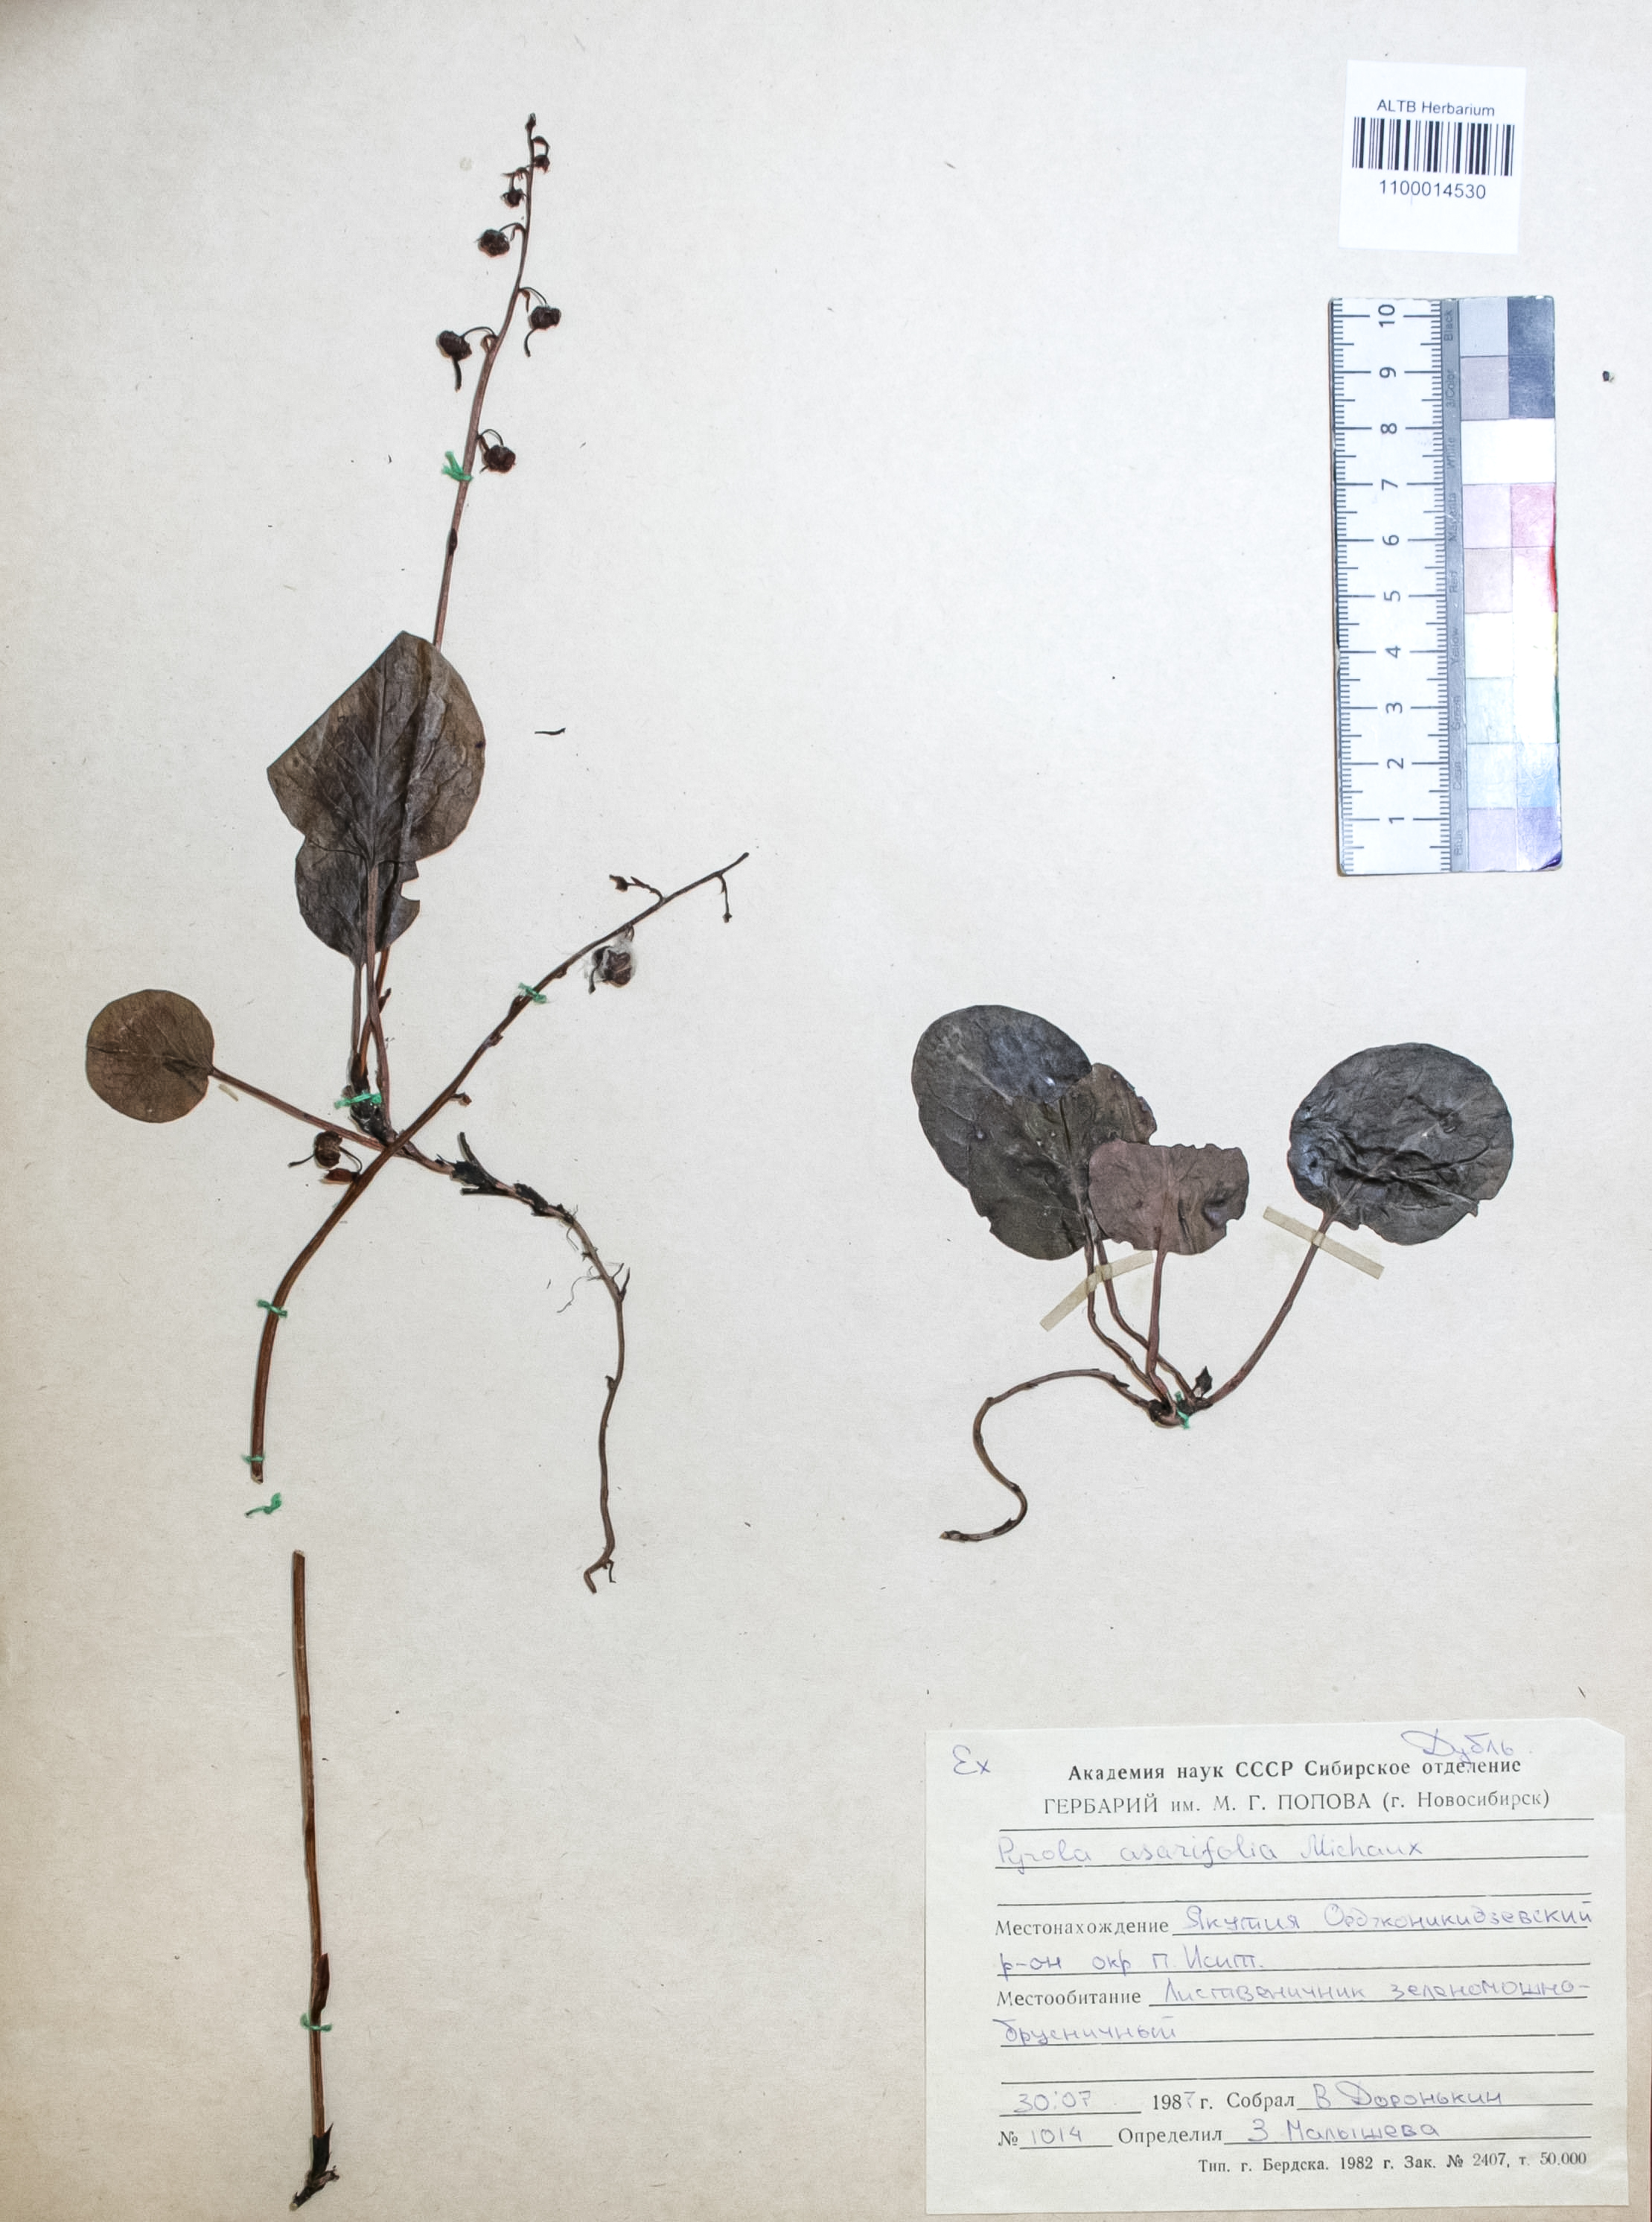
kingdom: Plantae
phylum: Tracheophyta
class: Magnoliopsida
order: Ericales
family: Ericaceae
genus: Pyrola
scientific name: Pyrola asarifolia
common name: Bog wintergreen
